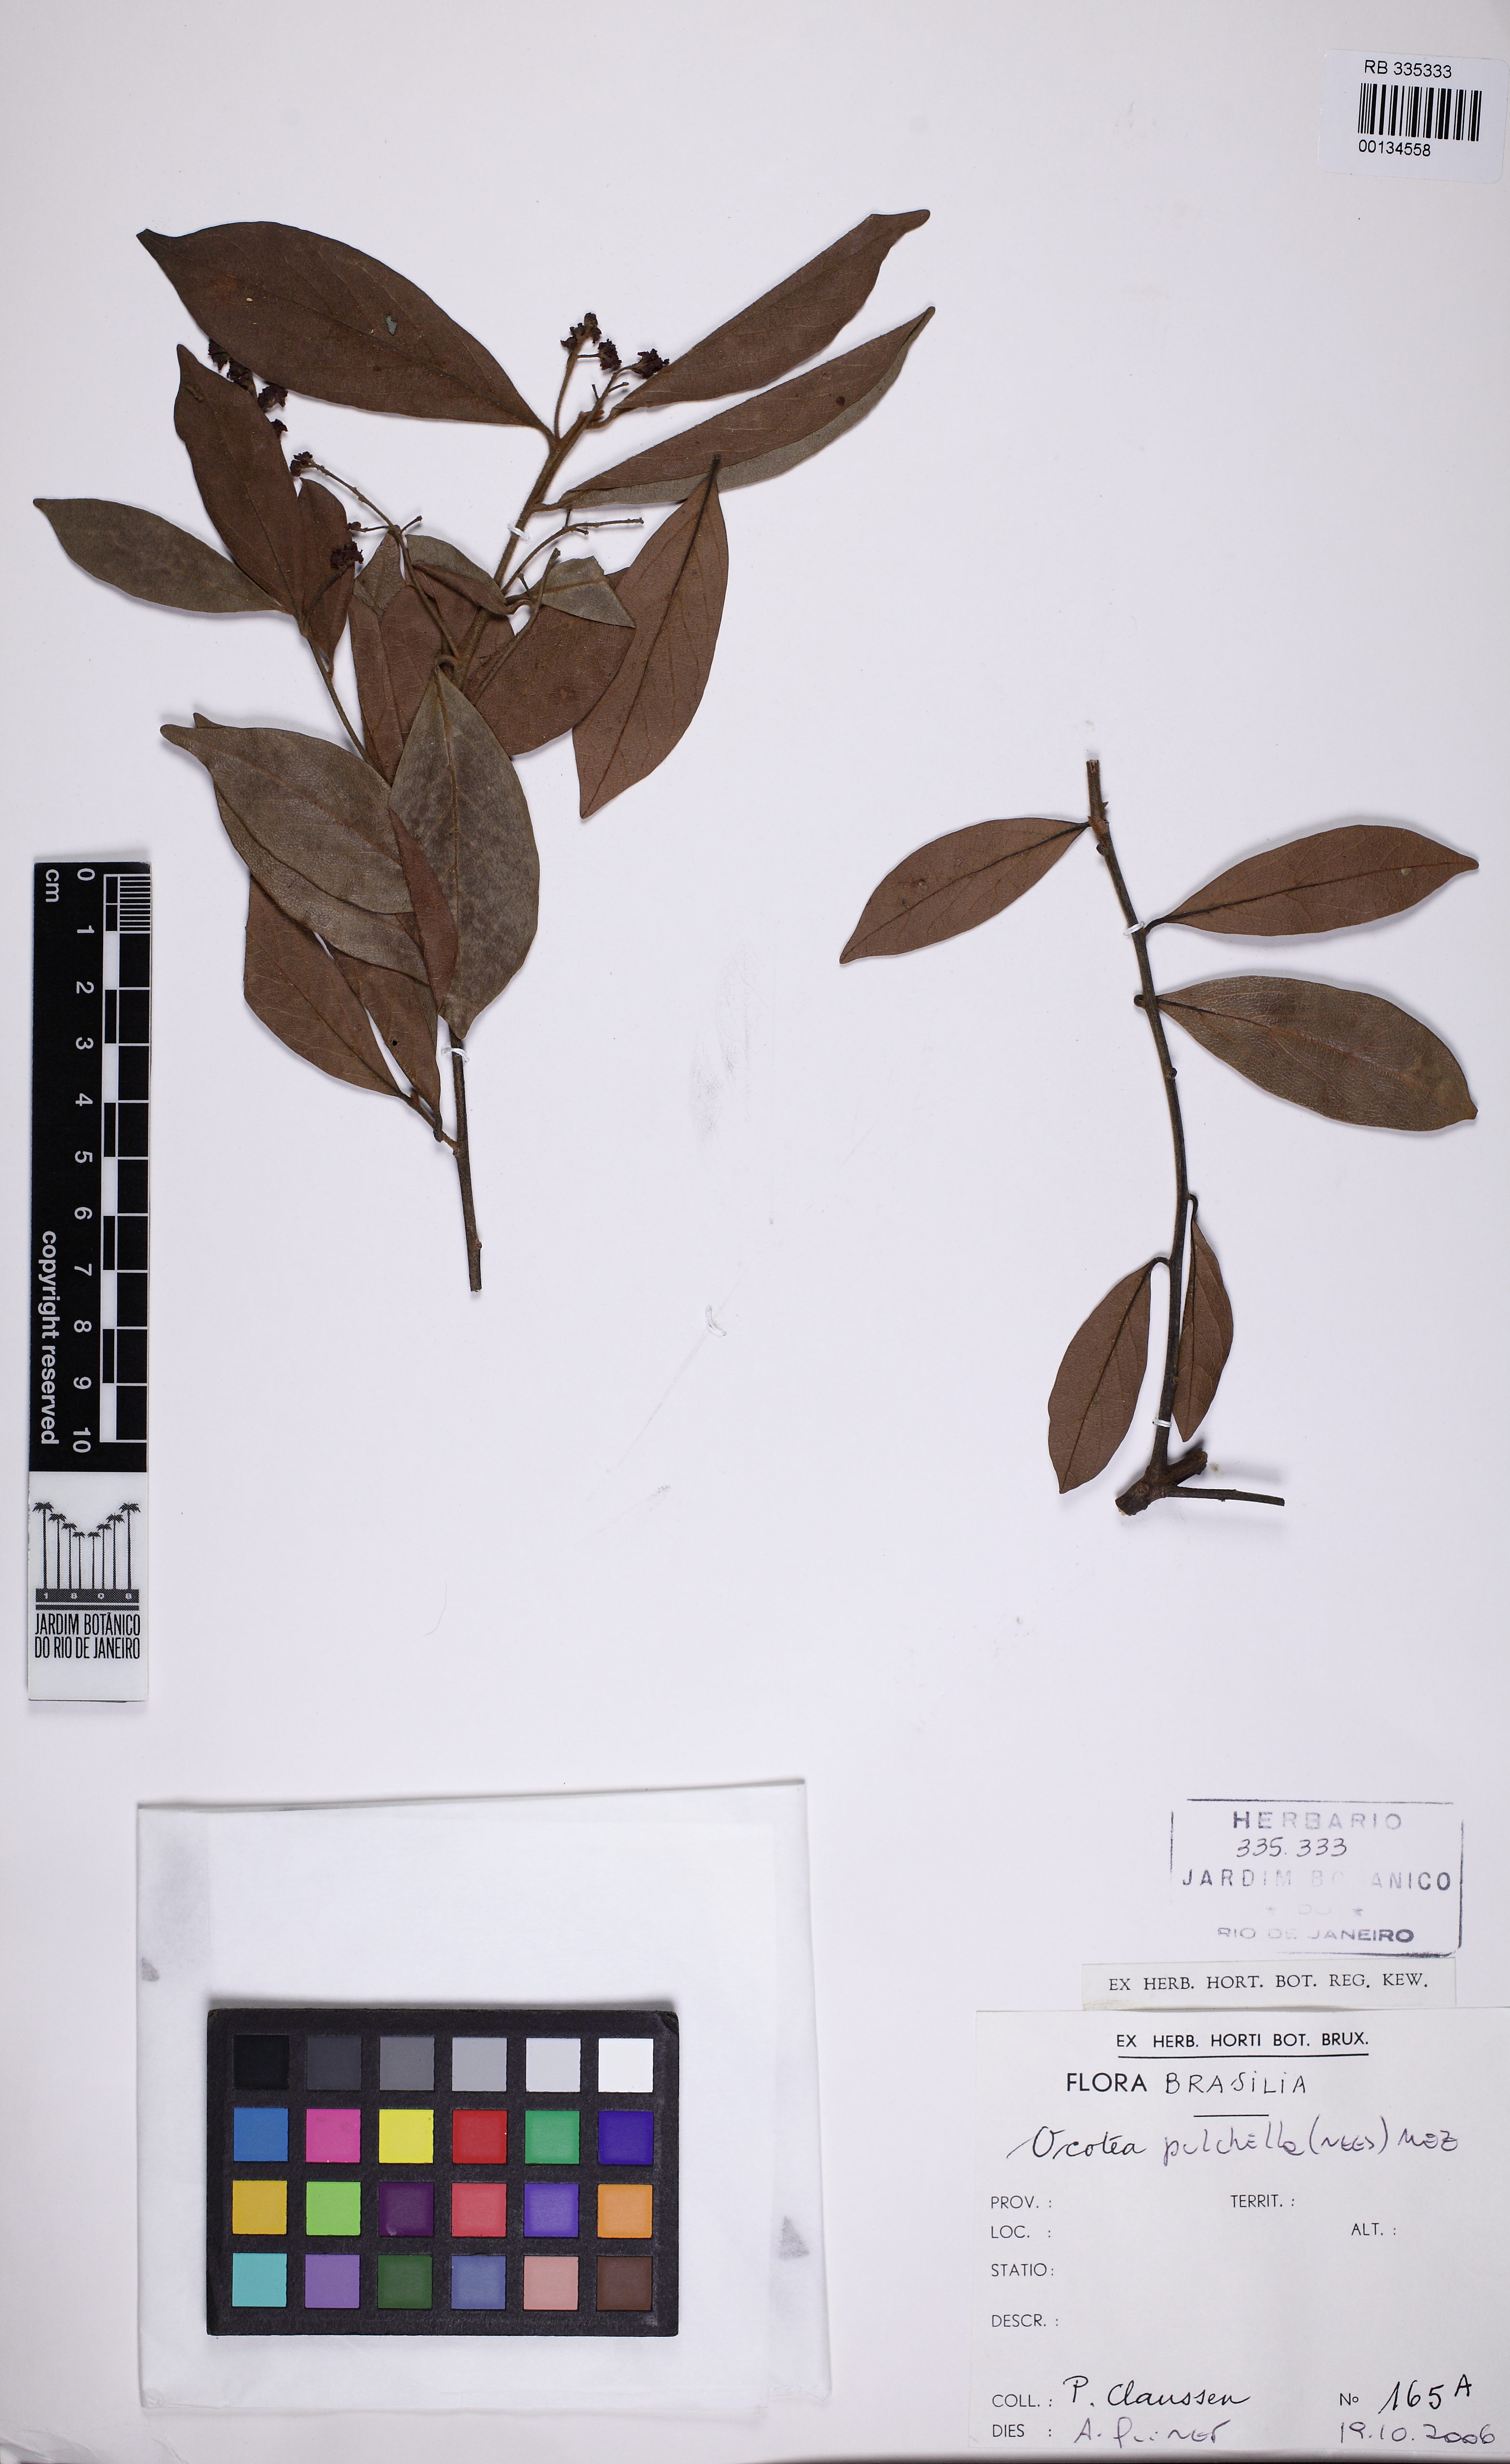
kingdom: Plantae
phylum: Tracheophyta
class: Magnoliopsida
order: Laurales
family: Lauraceae
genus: Mespilodaphne
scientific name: Mespilodaphne pulchella
